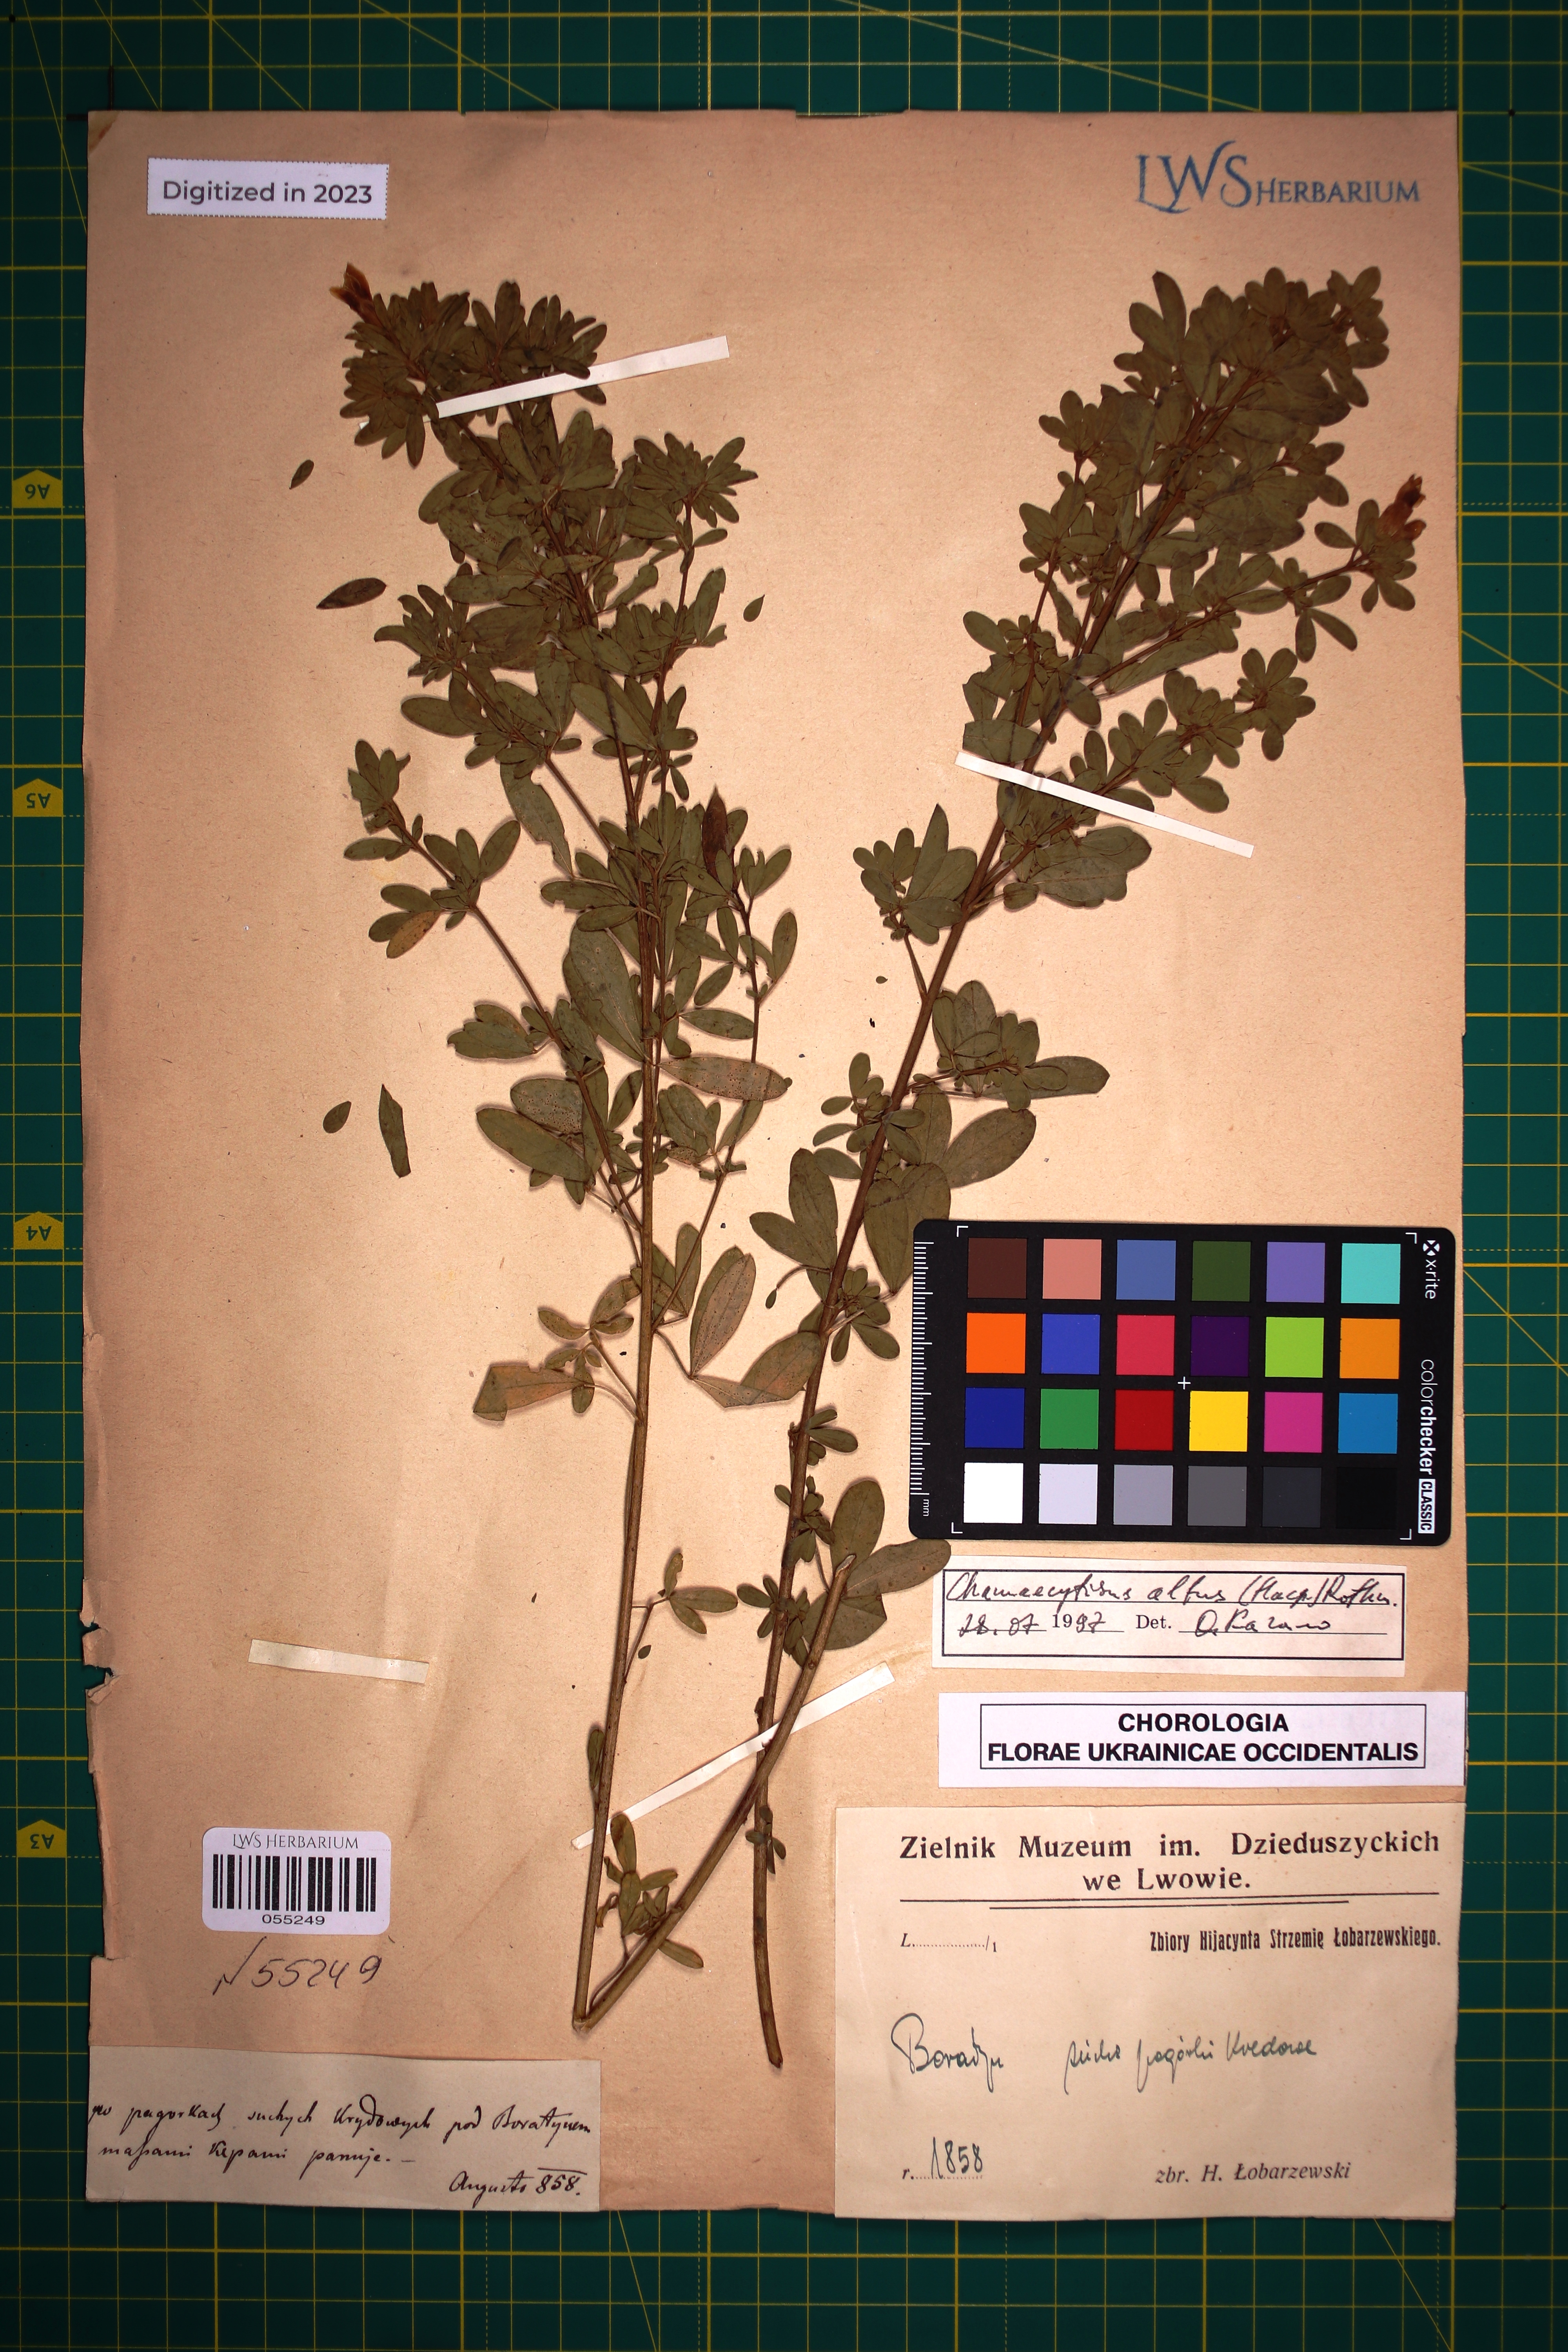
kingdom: Plantae
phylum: Tracheophyta
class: Magnoliopsida
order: Fabales
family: Fabaceae
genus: Chamaecytisus
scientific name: Chamaecytisus albus
